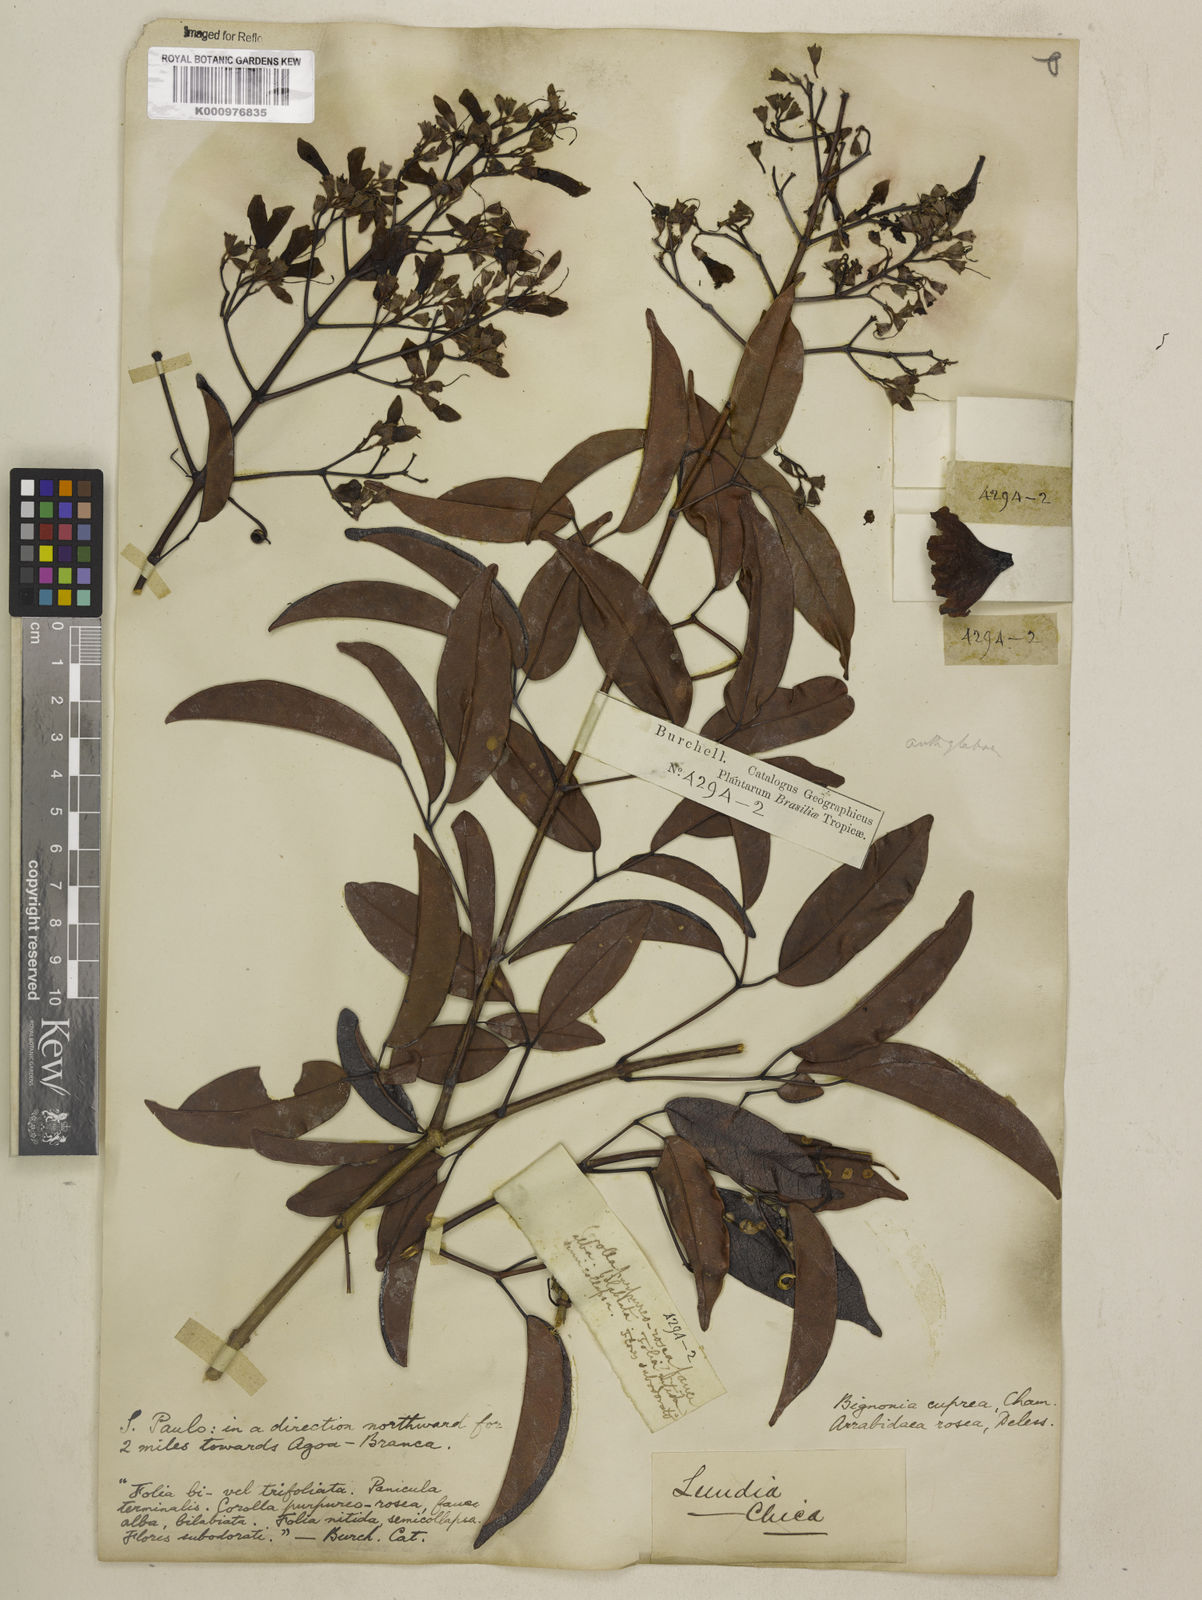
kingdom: Plantae
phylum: Tracheophyta
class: Magnoliopsida
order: Lamiales
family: Bignoniaceae
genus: Fridericia
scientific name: Fridericia chica
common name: Cricketvine
